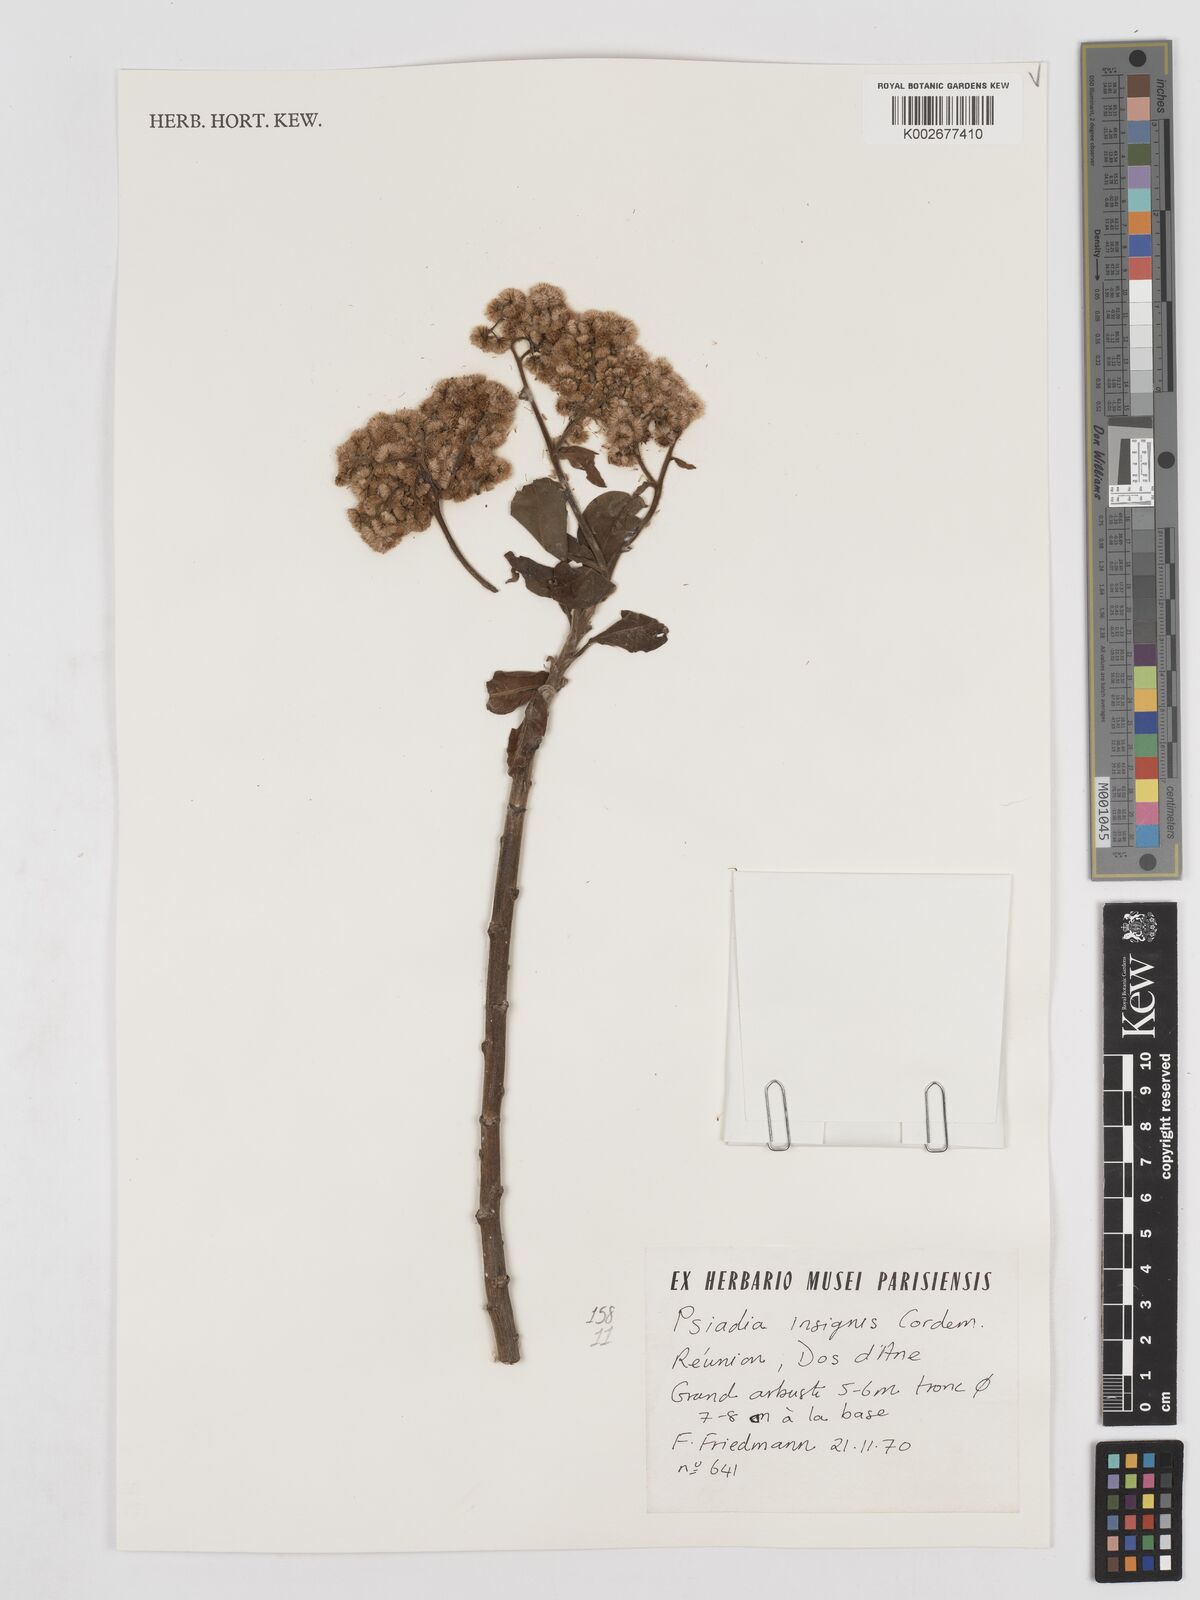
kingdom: Plantae
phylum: Tracheophyta
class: Magnoliopsida
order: Asterales
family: Asteraceae
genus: Psiadia
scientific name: Psiadia insignis
